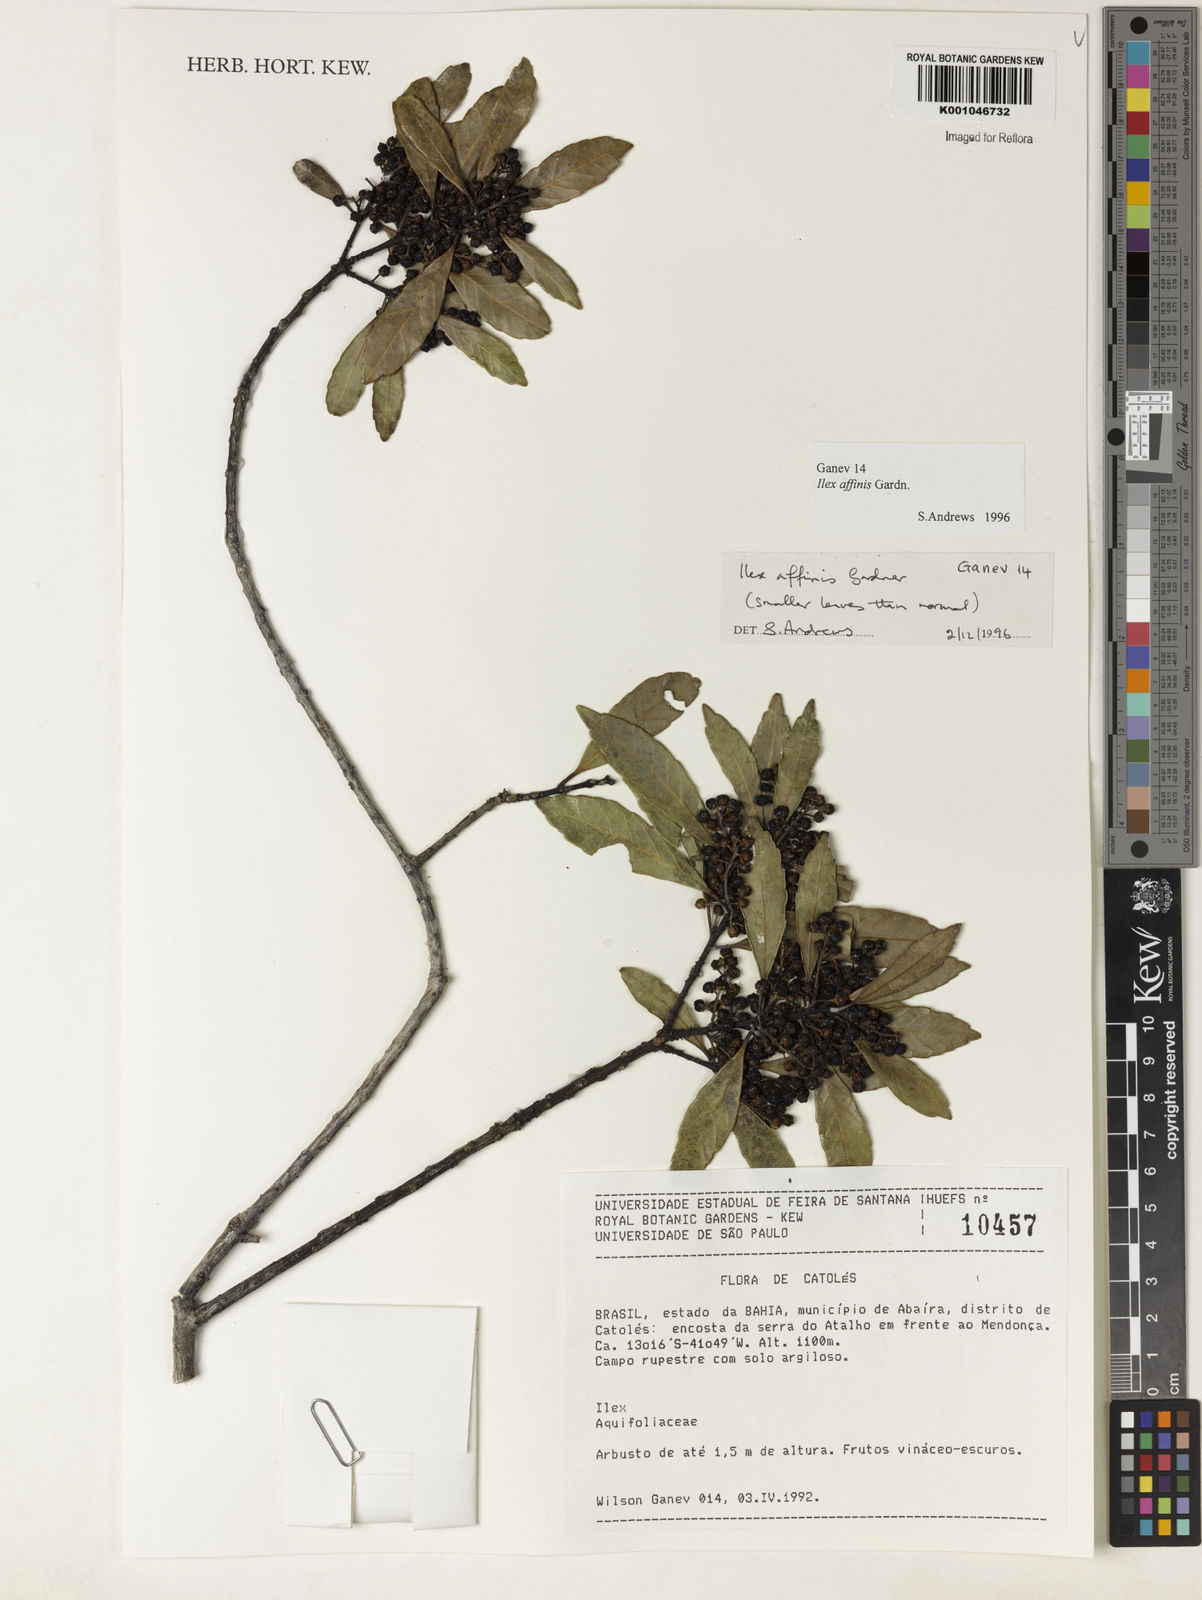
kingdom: Plantae
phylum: Tracheophyta
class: Magnoliopsida
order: Aquifoliales
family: Aquifoliaceae
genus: Ilex
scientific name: Ilex affinis
